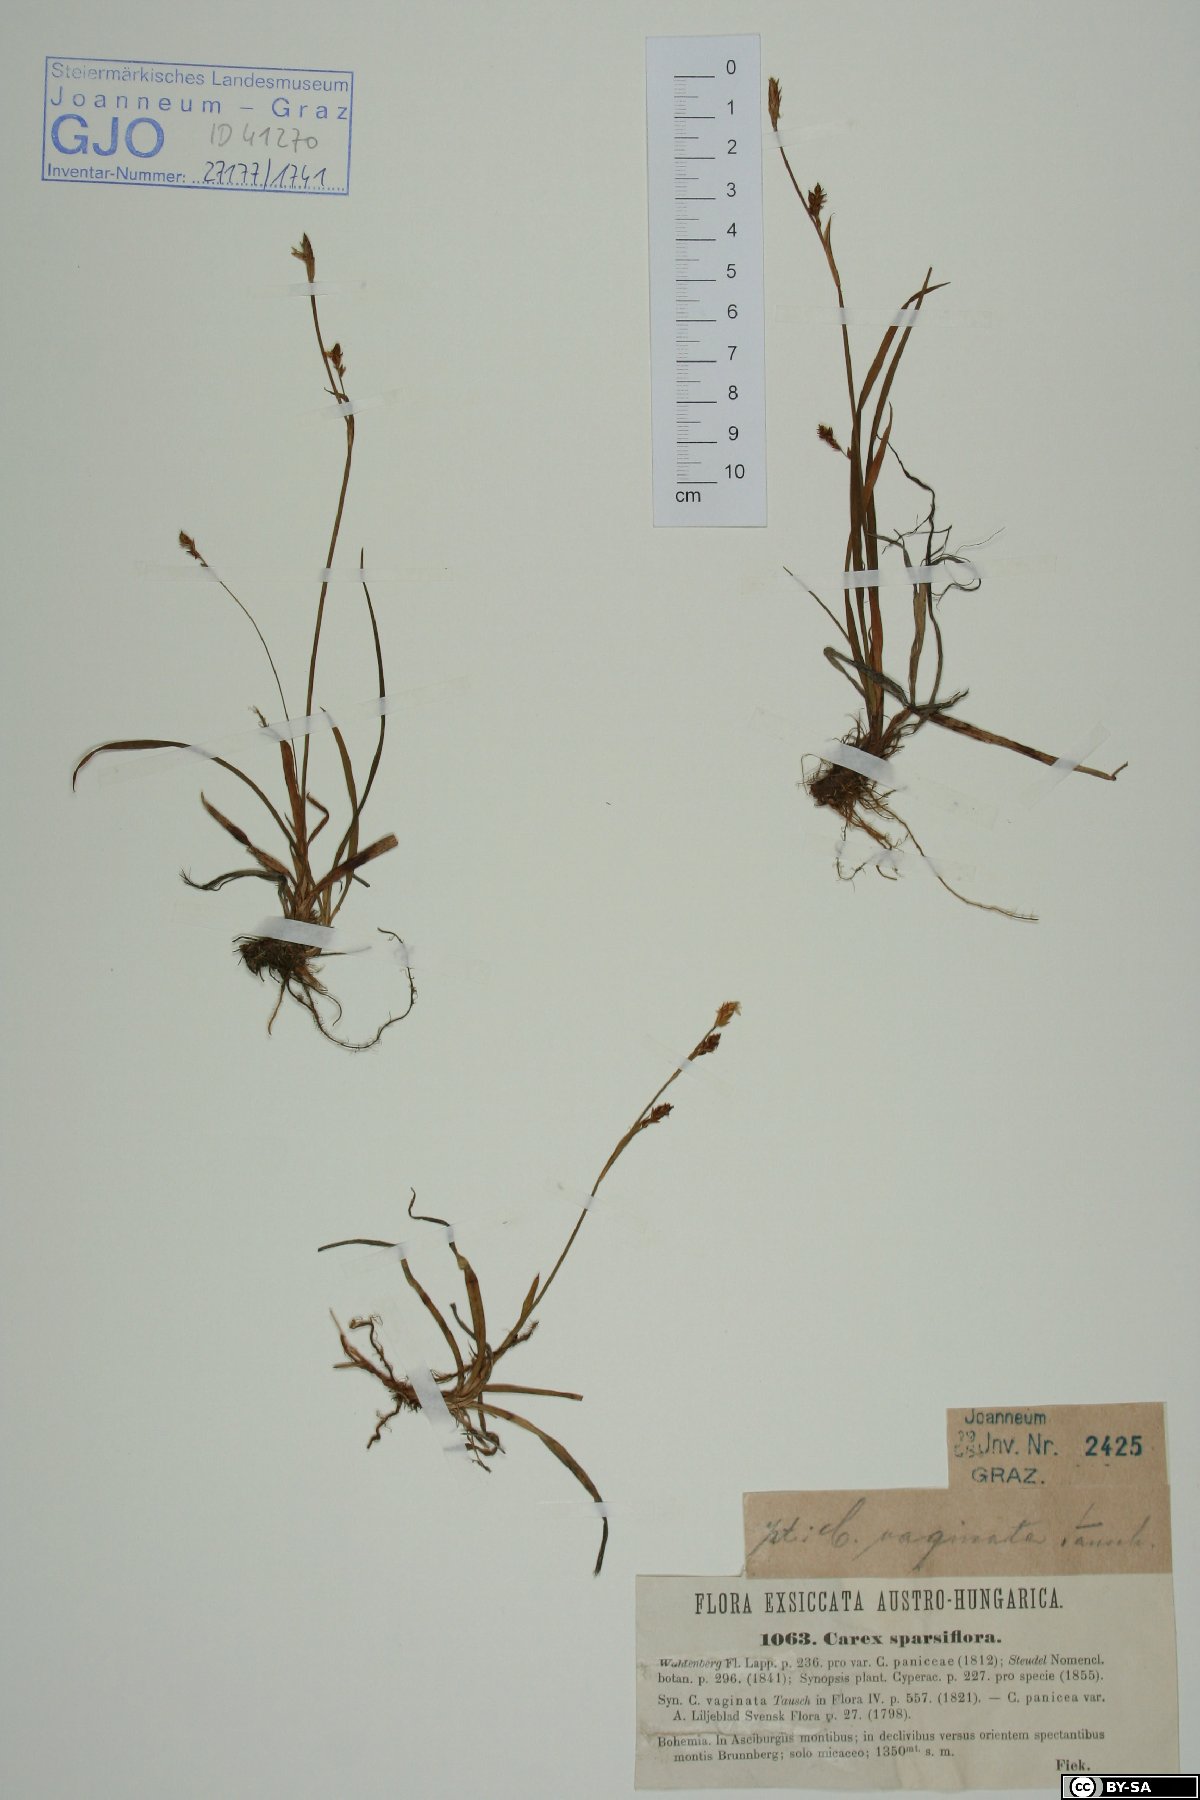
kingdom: Plantae
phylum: Tracheophyta
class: Liliopsida
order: Poales
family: Cyperaceae
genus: Carex
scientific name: Carex vaginata
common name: Sheathed sedge
